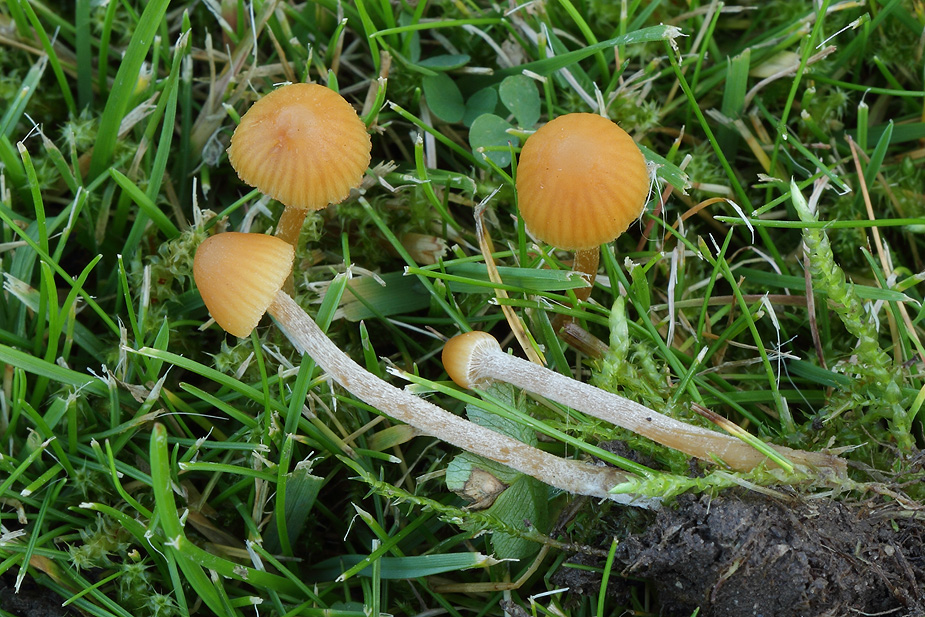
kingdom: Fungi
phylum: Basidiomycota
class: Agaricomycetes
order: Agaricales
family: Hymenogastraceae
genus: Galerina
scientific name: Galerina clavata
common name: kær-hjelmhat
